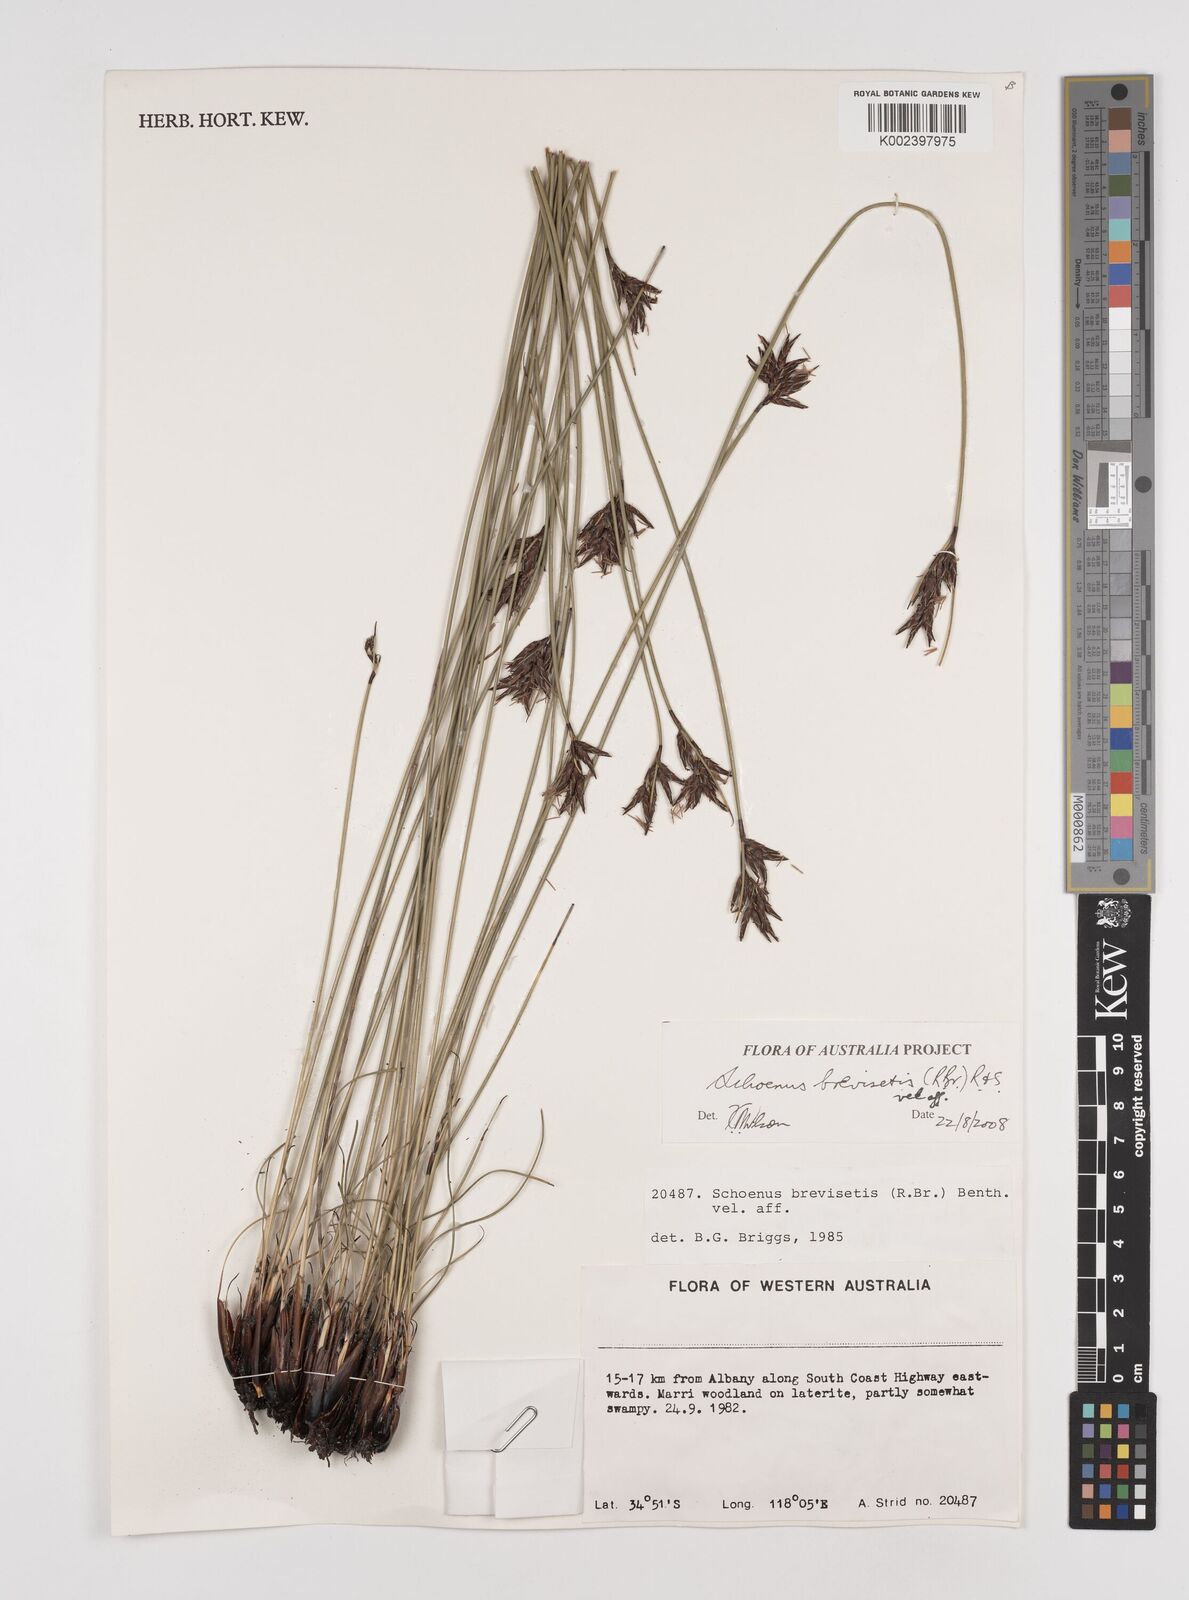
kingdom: Plantae
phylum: Tracheophyta
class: Liliopsida
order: Poales
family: Cyperaceae
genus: Schoenus
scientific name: Schoenus brevisetis
